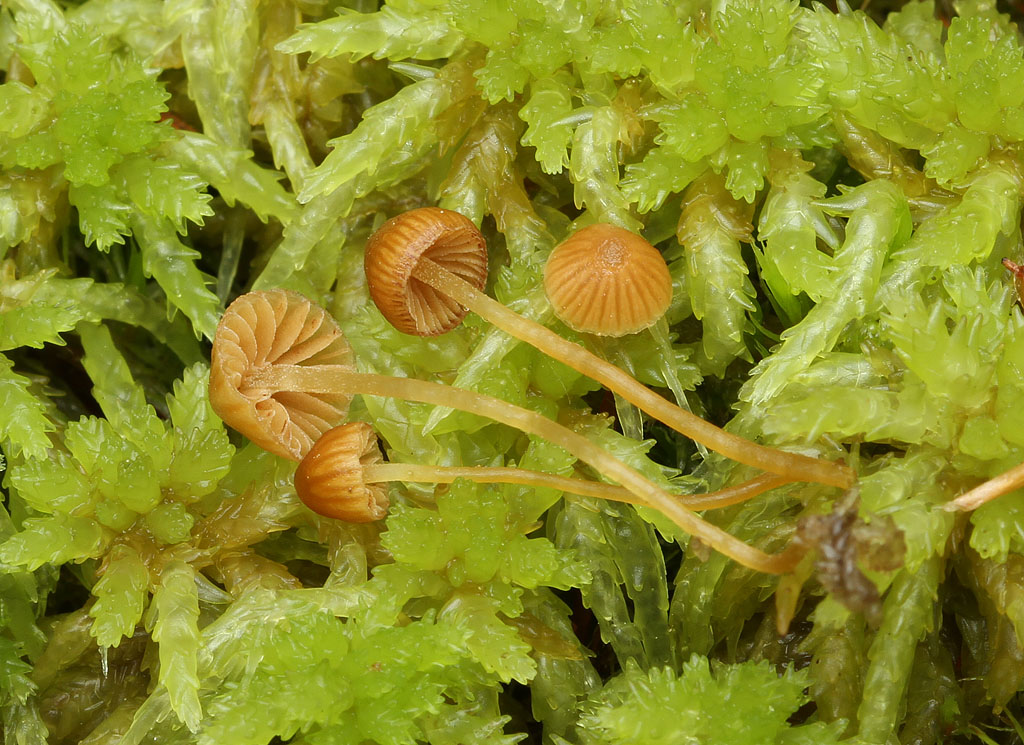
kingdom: Fungi
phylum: Basidiomycota
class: Agaricomycetes
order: Agaricales
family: Hymenogastraceae
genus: Galerina
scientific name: Galerina sphagnicola
